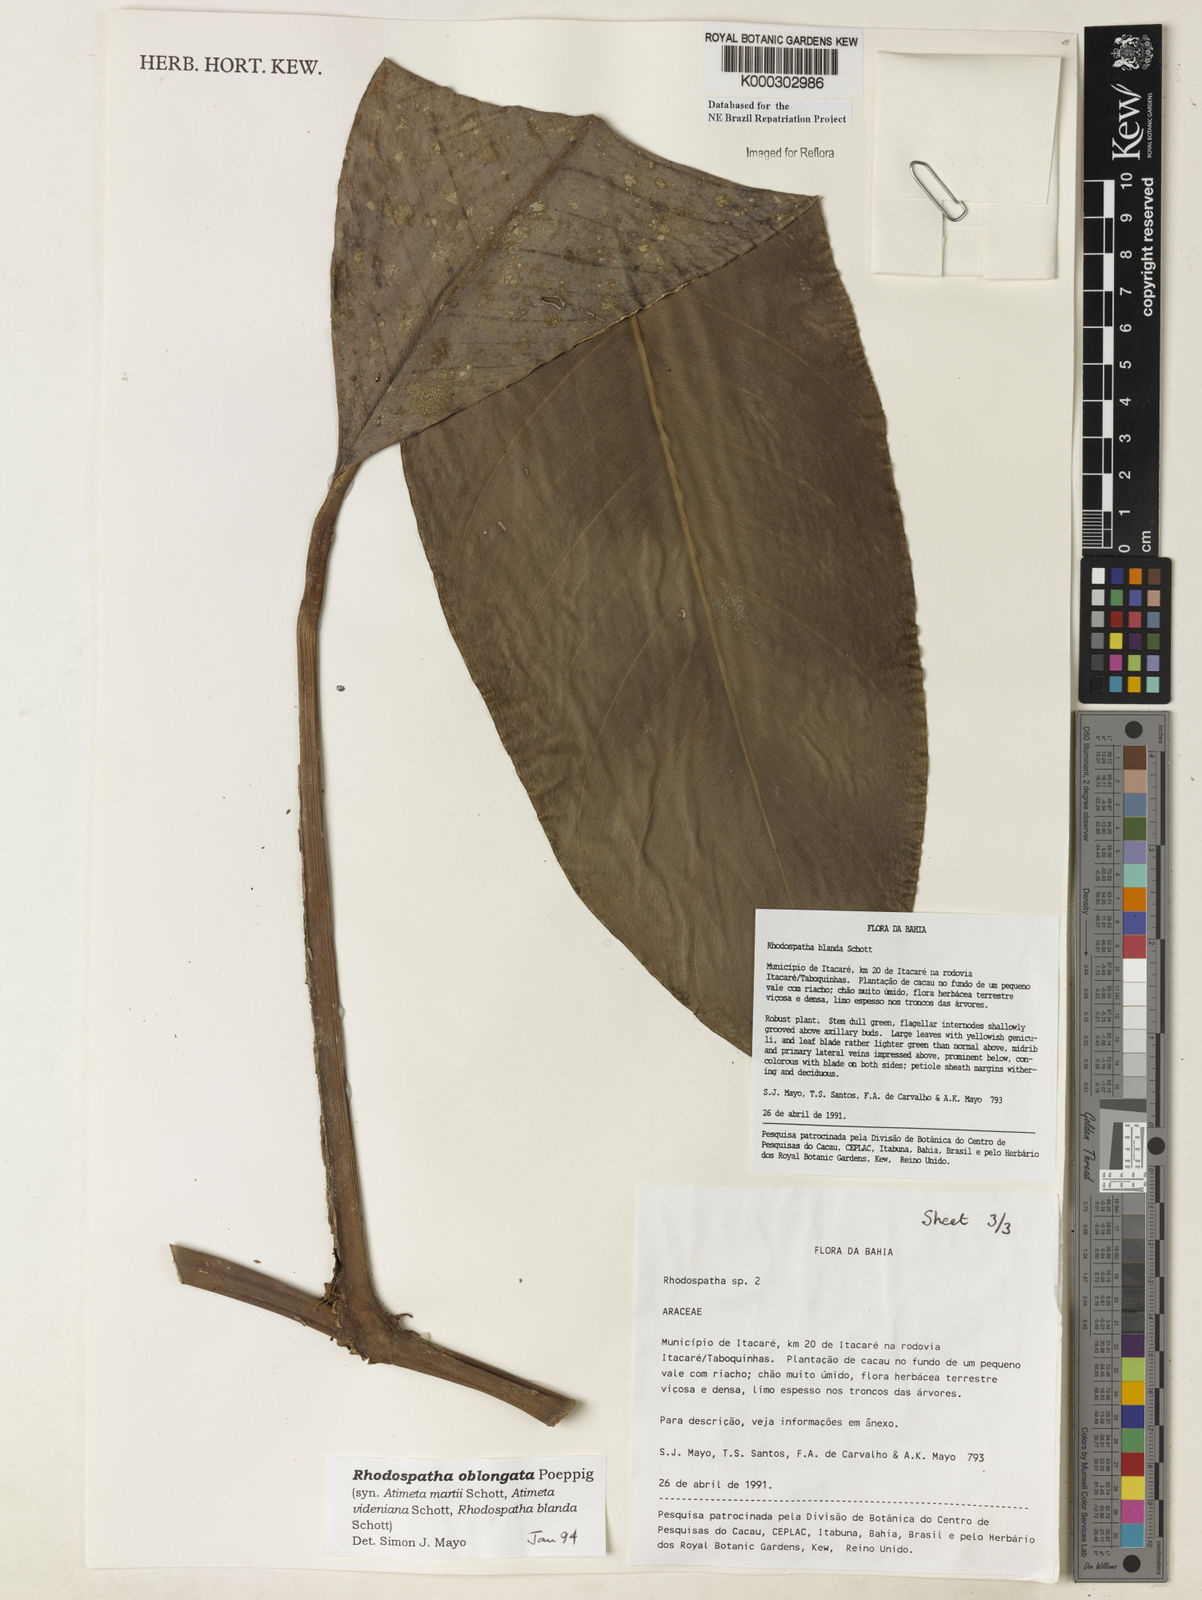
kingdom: Plantae
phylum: Tracheophyta
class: Liliopsida
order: Alismatales
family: Araceae
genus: Rhodospatha
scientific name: Rhodospatha oblongata
